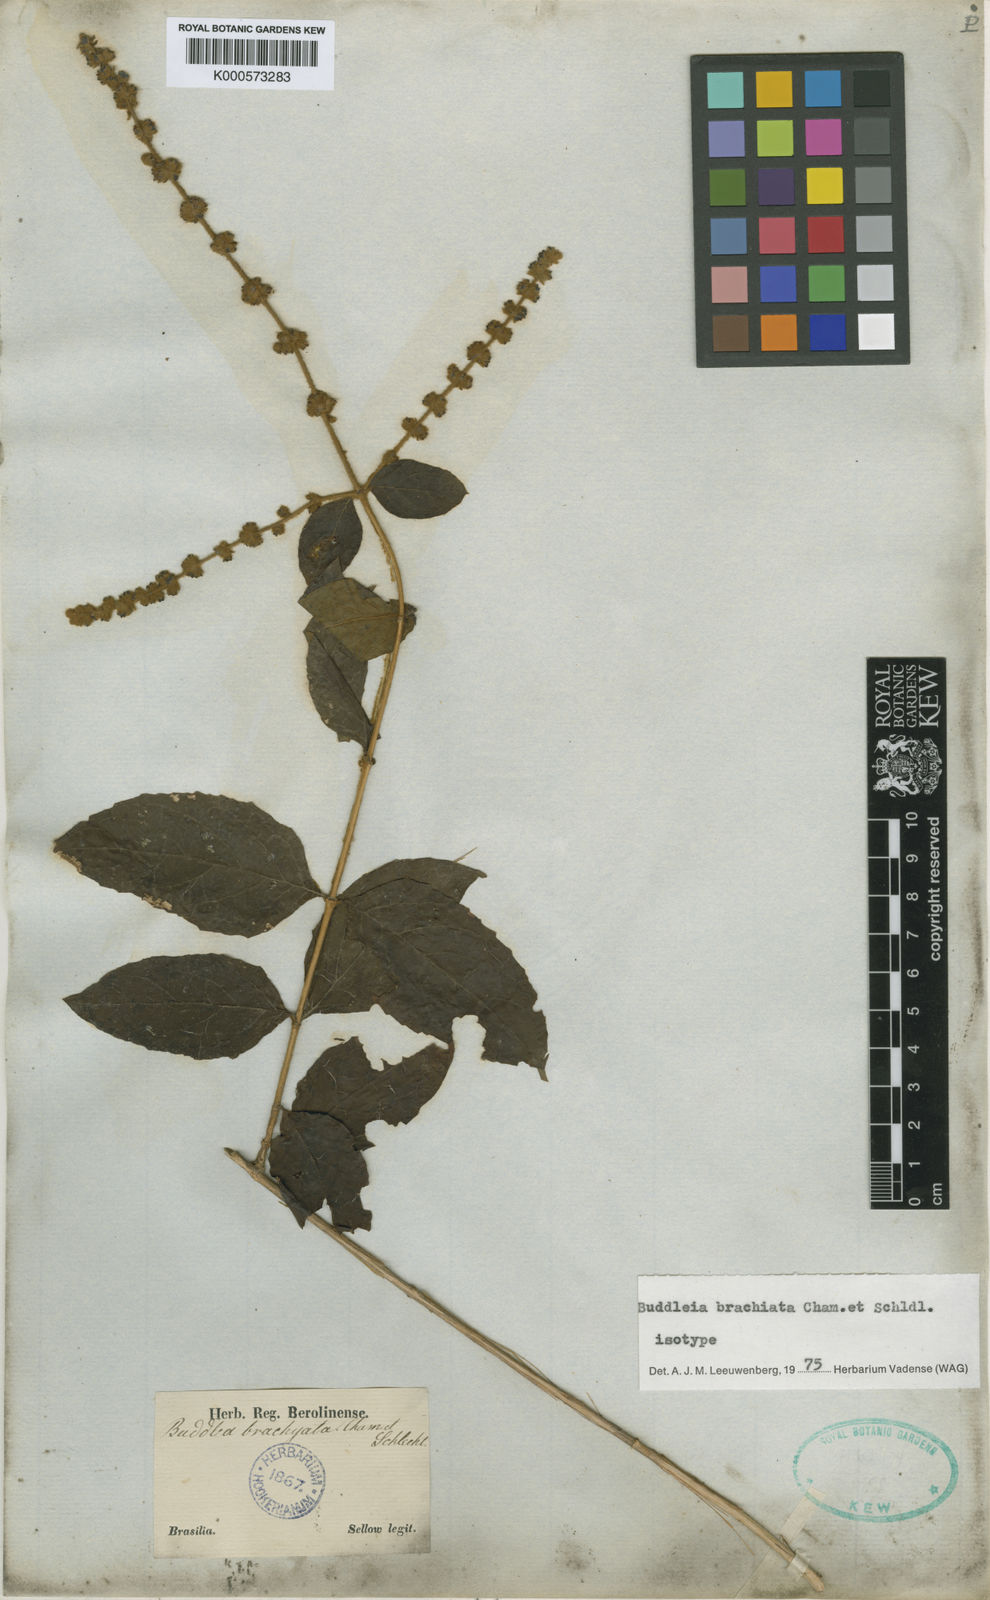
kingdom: Plantae
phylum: Tracheophyta
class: Magnoliopsida
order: Lamiales
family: Scrophulariaceae
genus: Buddleja
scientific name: Buddleja brachiata
